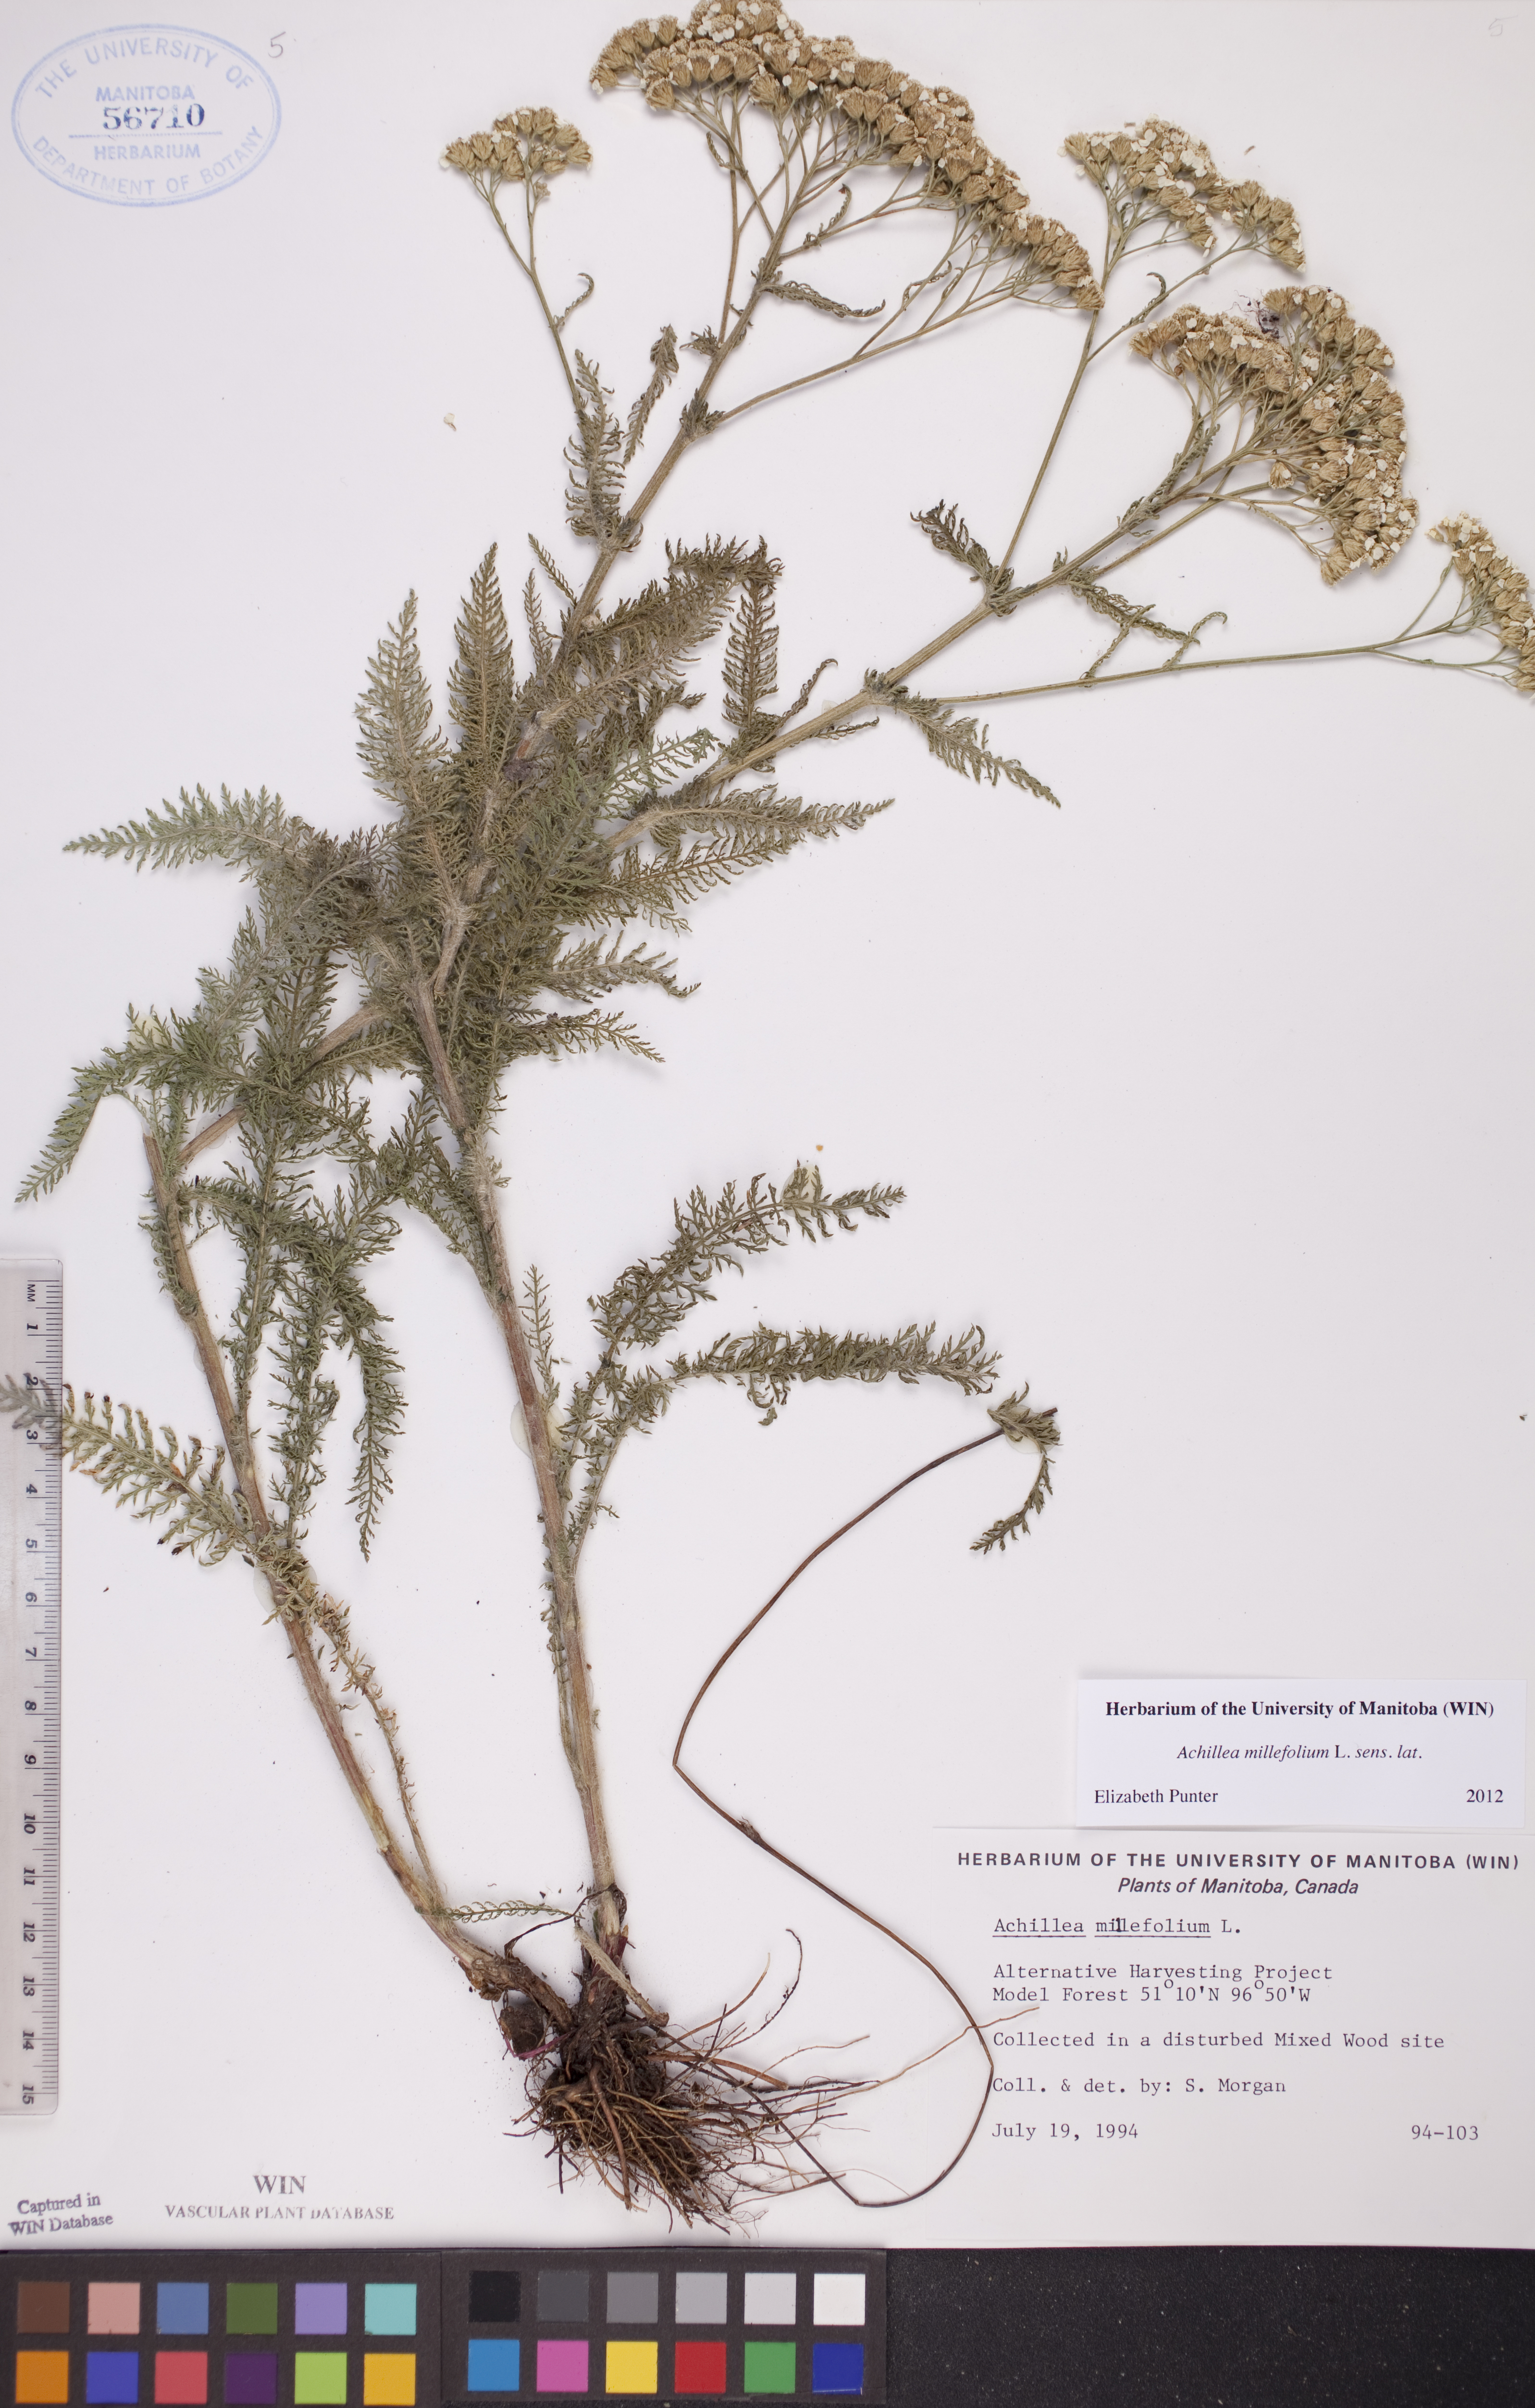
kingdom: Plantae
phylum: Tracheophyta
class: Magnoliopsida
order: Asterales
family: Asteraceae
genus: Achillea
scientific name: Achillea millefolium
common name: Yarrow
